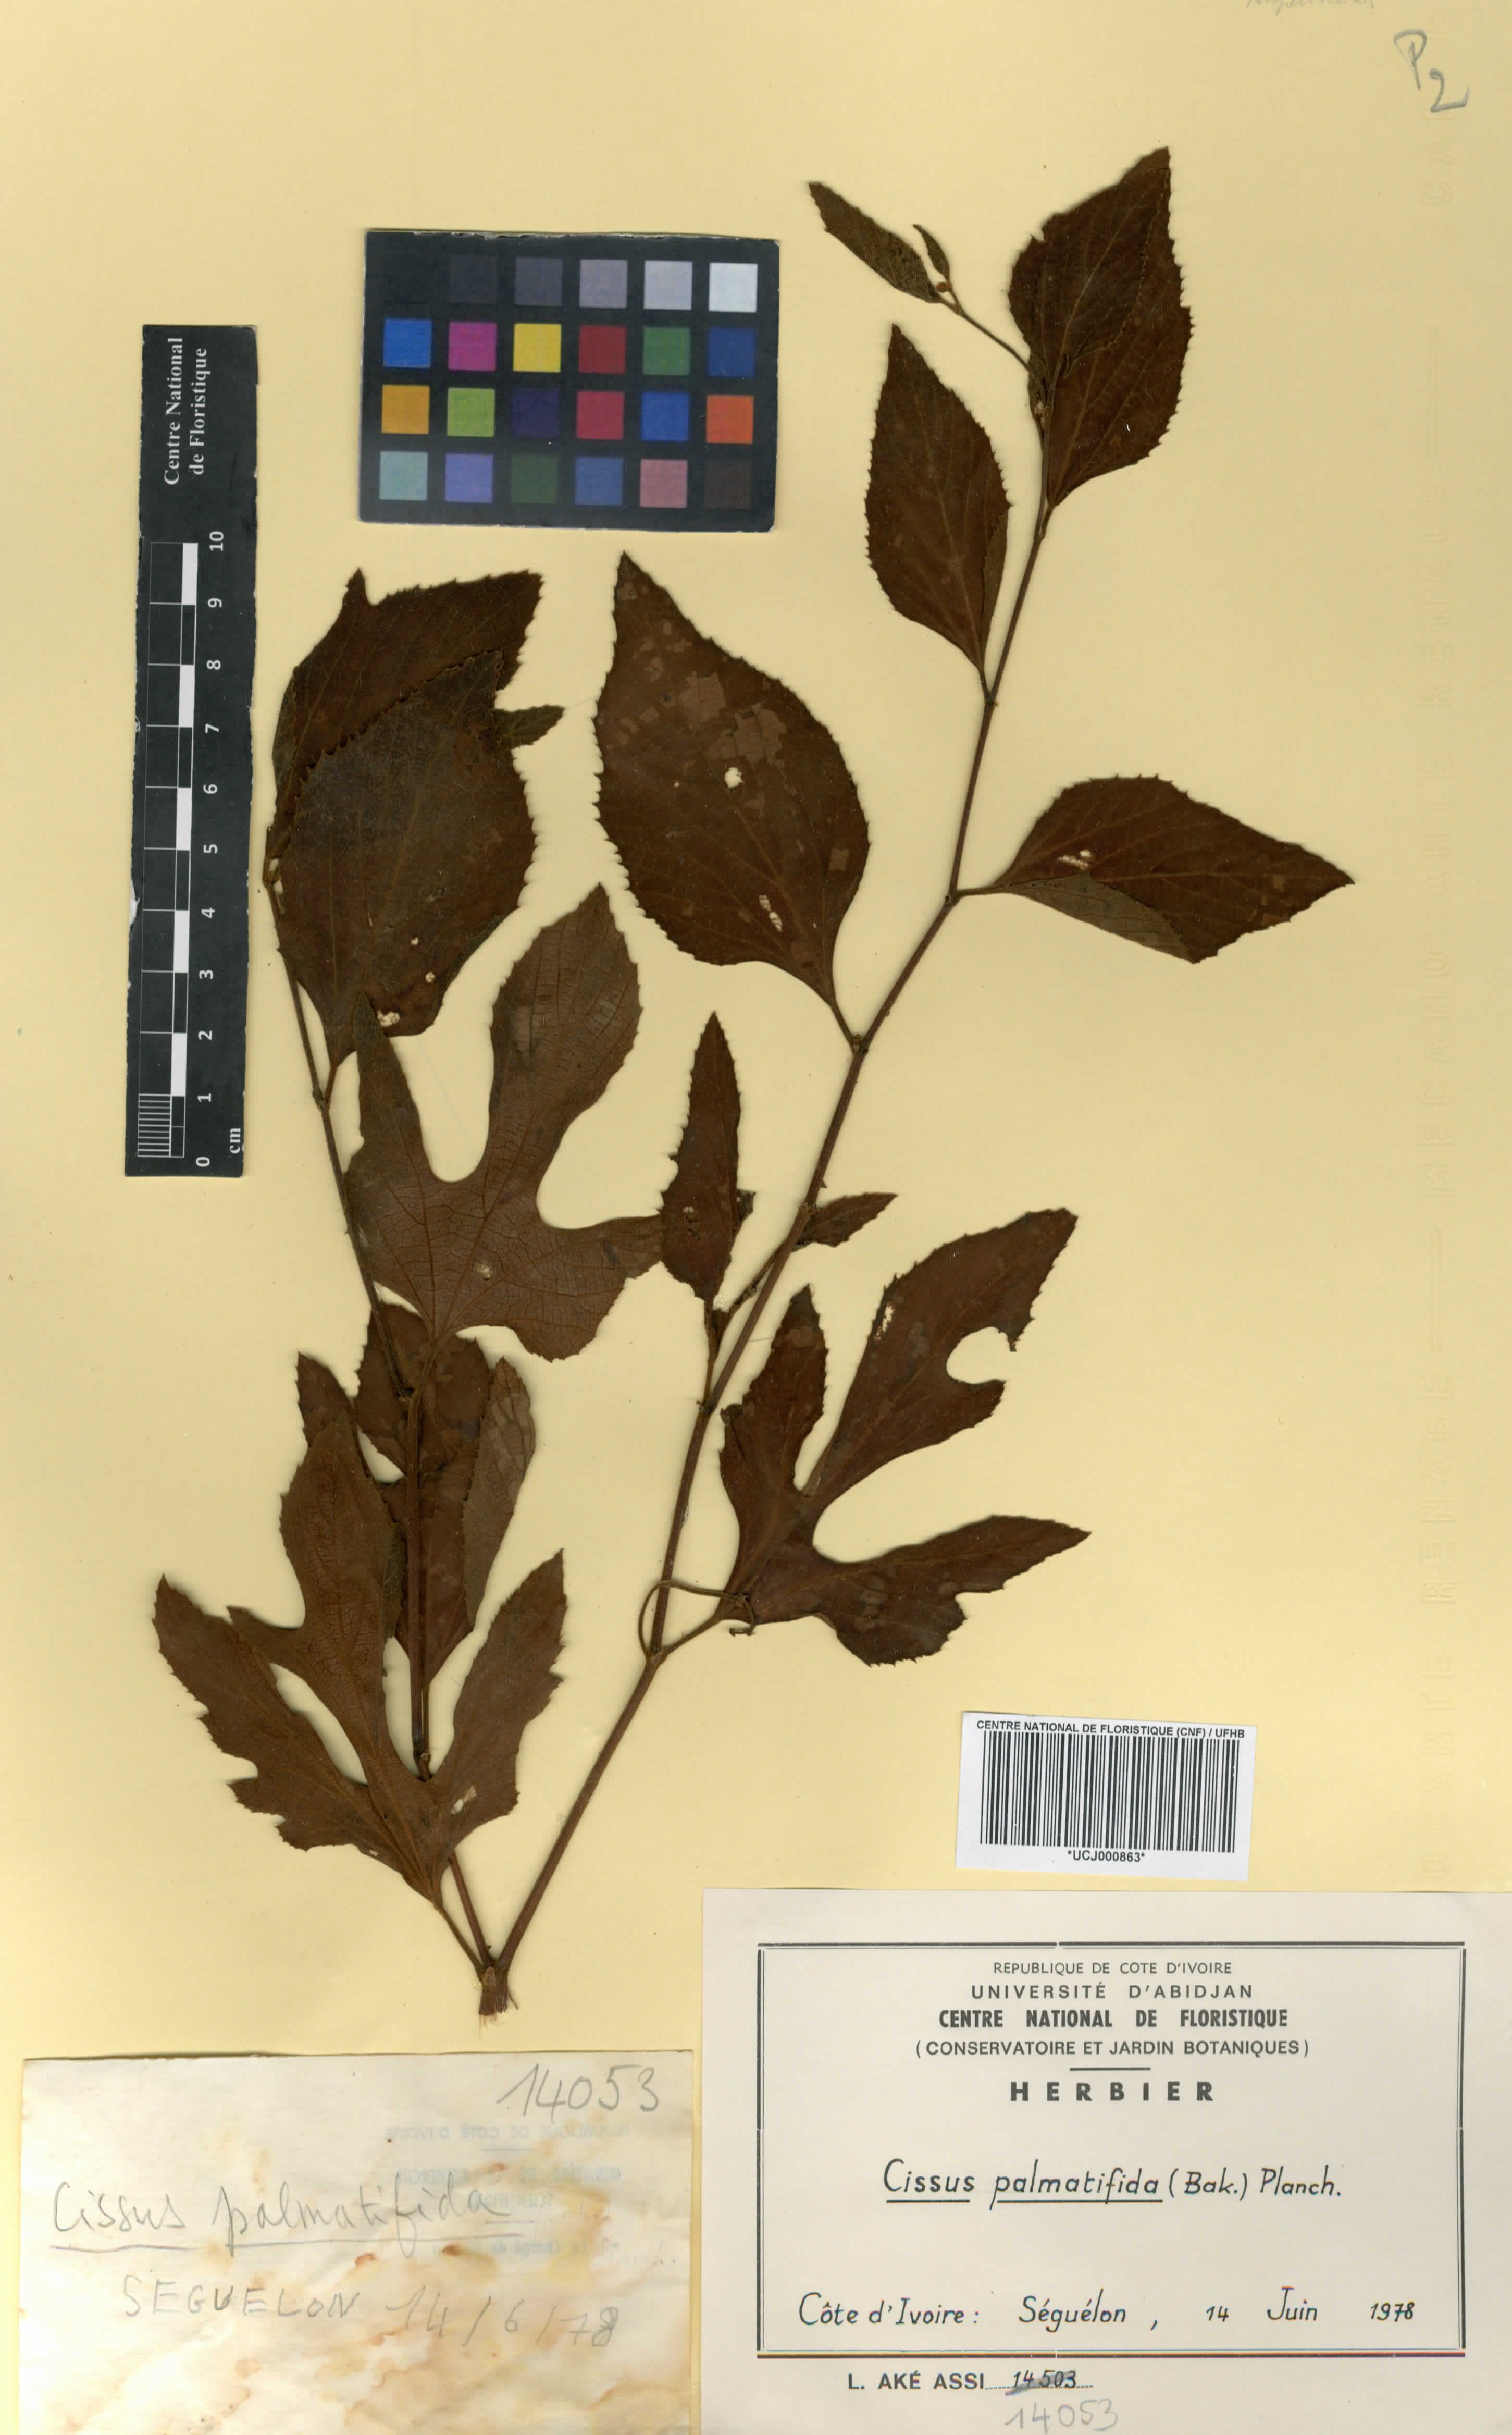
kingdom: Plantae
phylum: Tracheophyta
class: Magnoliopsida
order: Vitales
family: Vitaceae
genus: Cissus
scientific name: Cissus palmatifida
